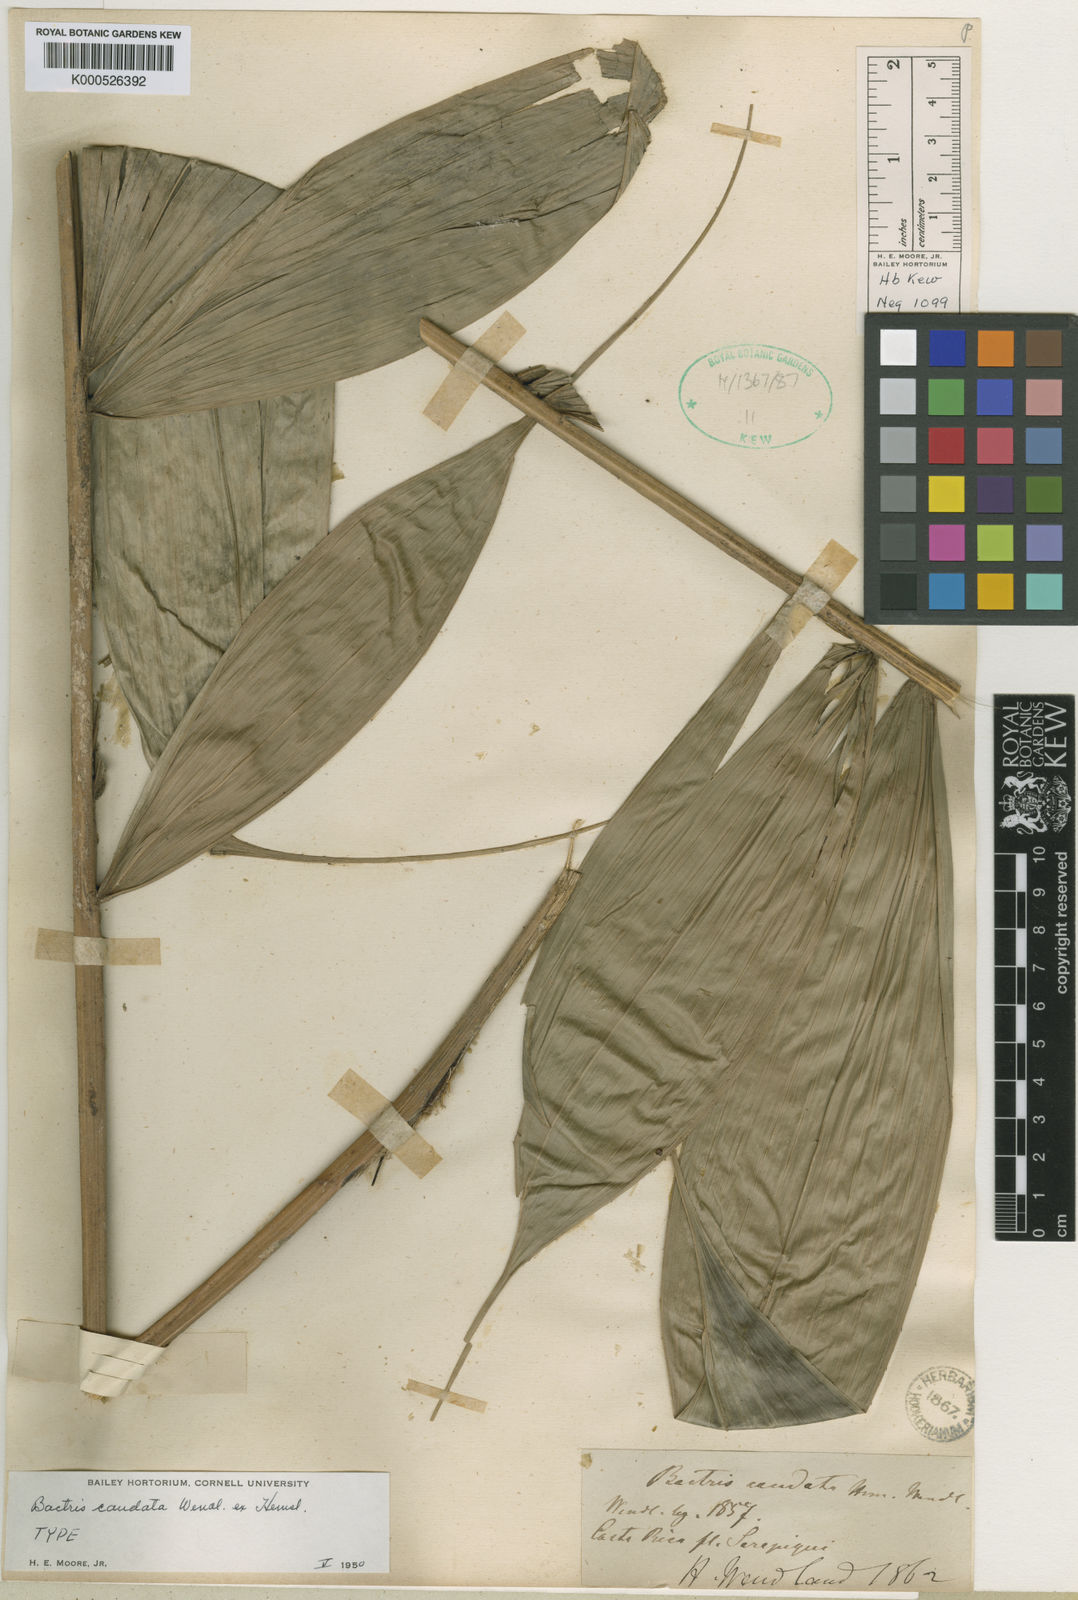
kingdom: Plantae
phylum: Tracheophyta
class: Liliopsida
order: Arecales
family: Arecaceae
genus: Bactris
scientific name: Bactris caudata
